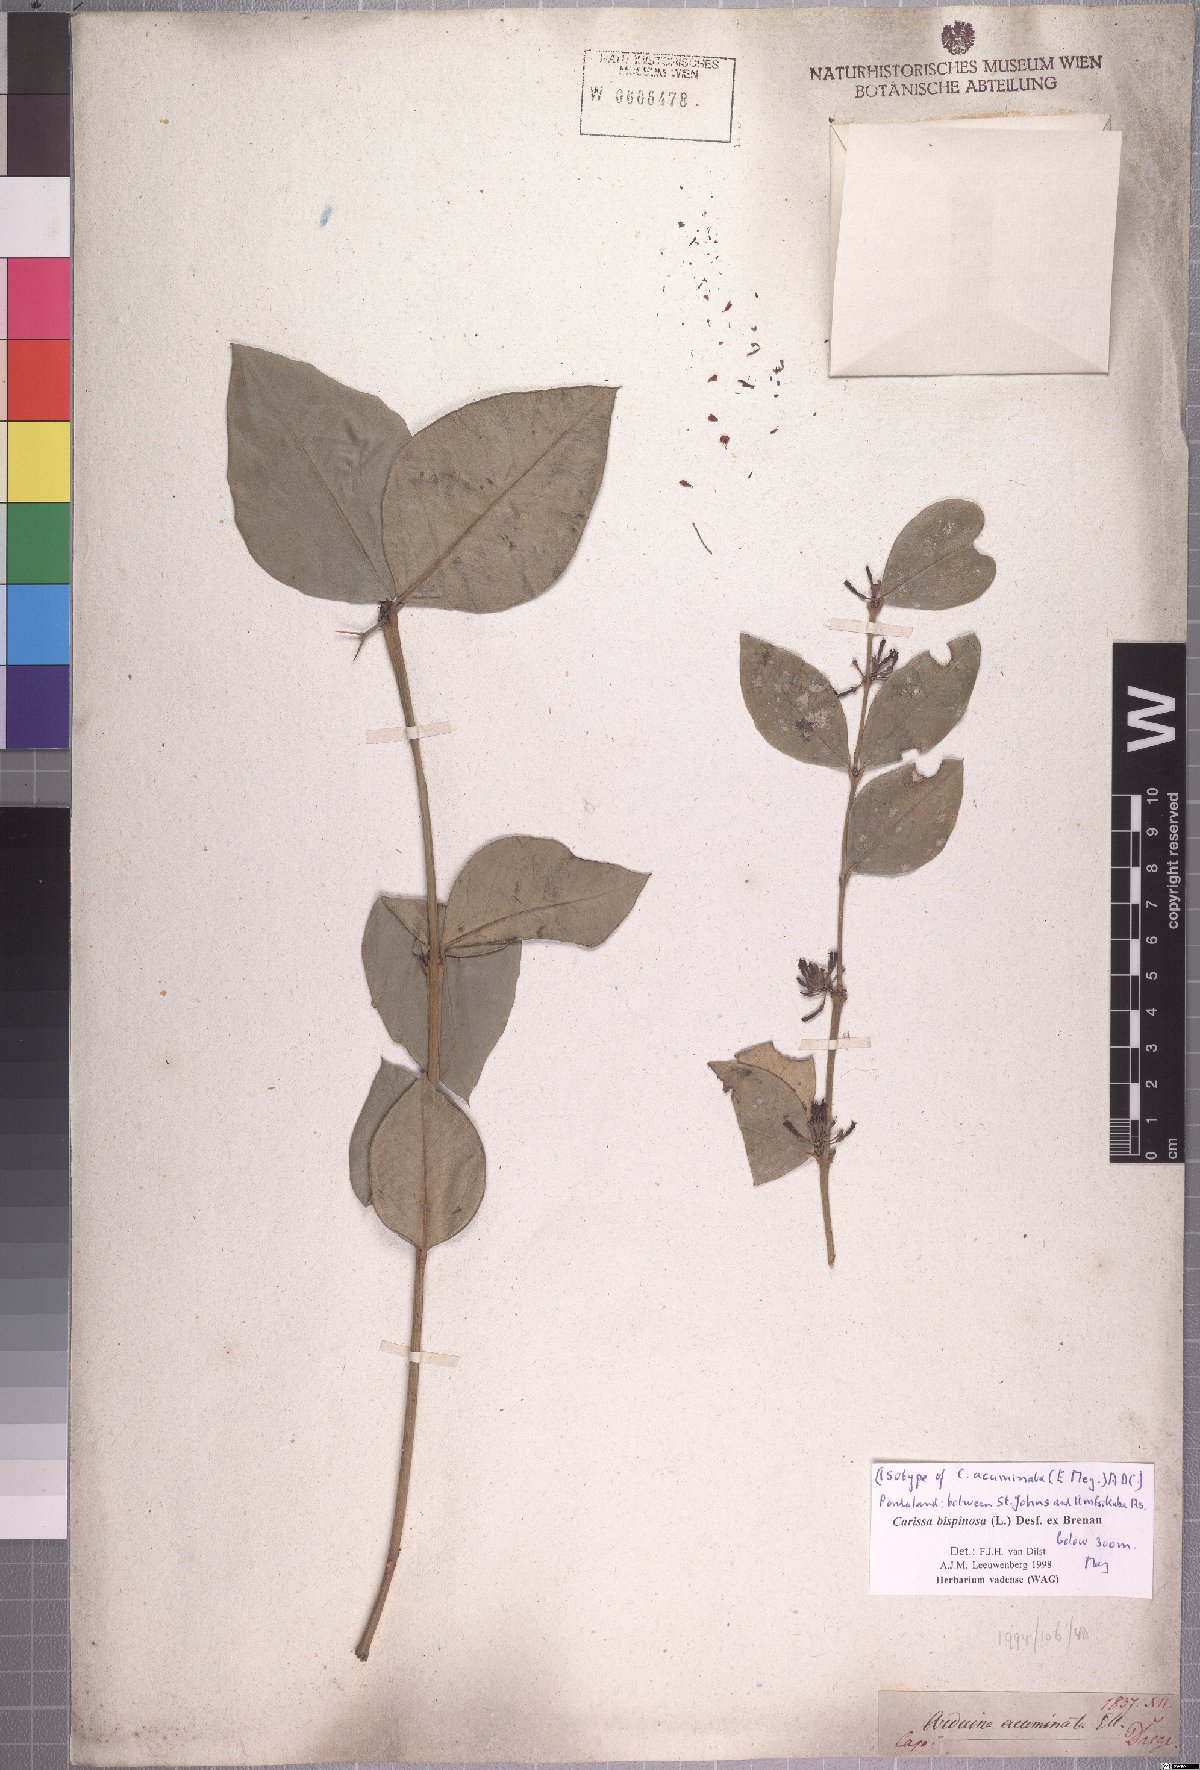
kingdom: Plantae
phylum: Tracheophyta
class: Magnoliopsida
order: Gentianales
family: Apocynaceae
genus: Carissa
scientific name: Carissa bispinosa
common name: Forest num-num
